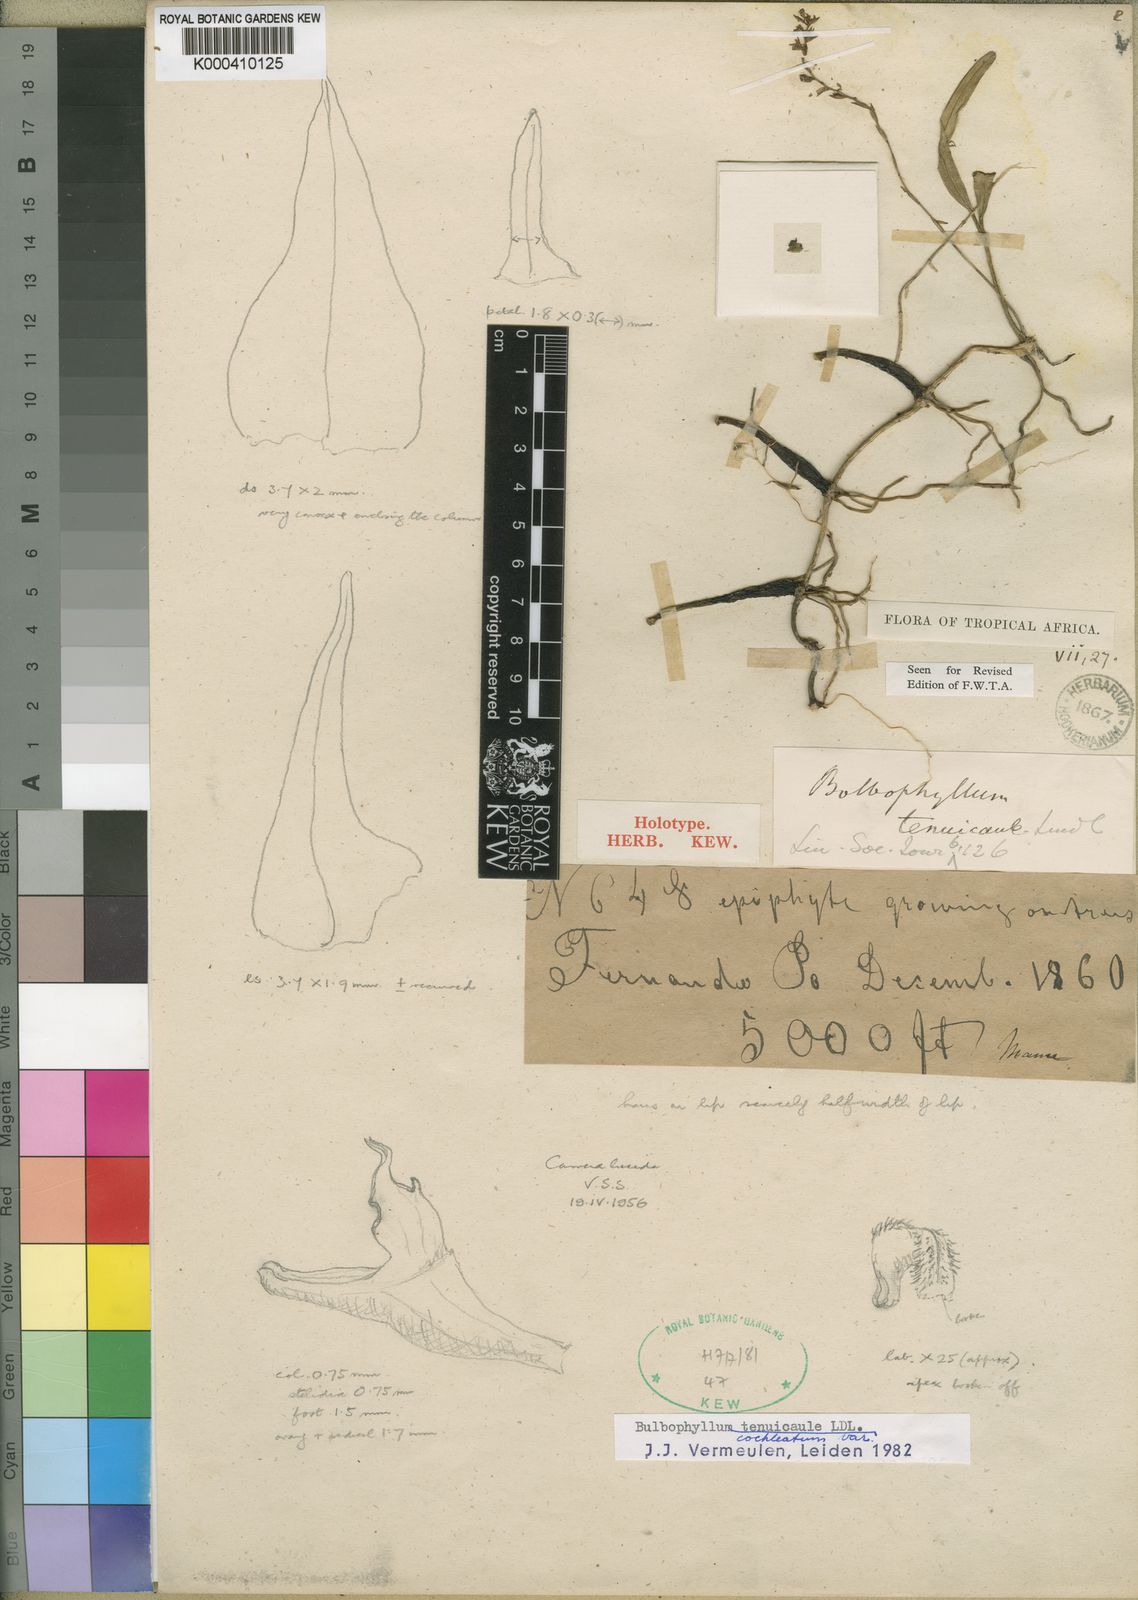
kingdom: Plantae
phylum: Tracheophyta
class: Liliopsida
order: Asparagales
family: Orchidaceae
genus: Bulbophyllum
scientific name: Bulbophyllum cochleatum
